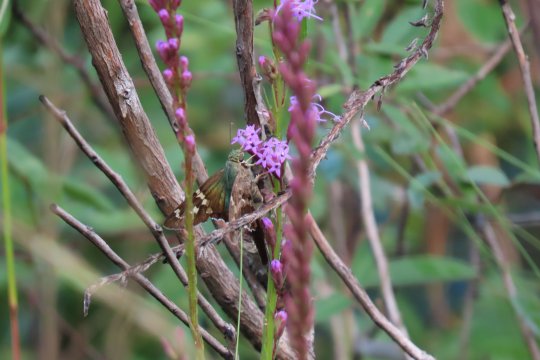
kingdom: Animalia
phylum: Arthropoda
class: Insecta
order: Lepidoptera
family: Hesperiidae
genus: Urbanus
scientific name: Urbanus proteus
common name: Long-tailed Skipper
